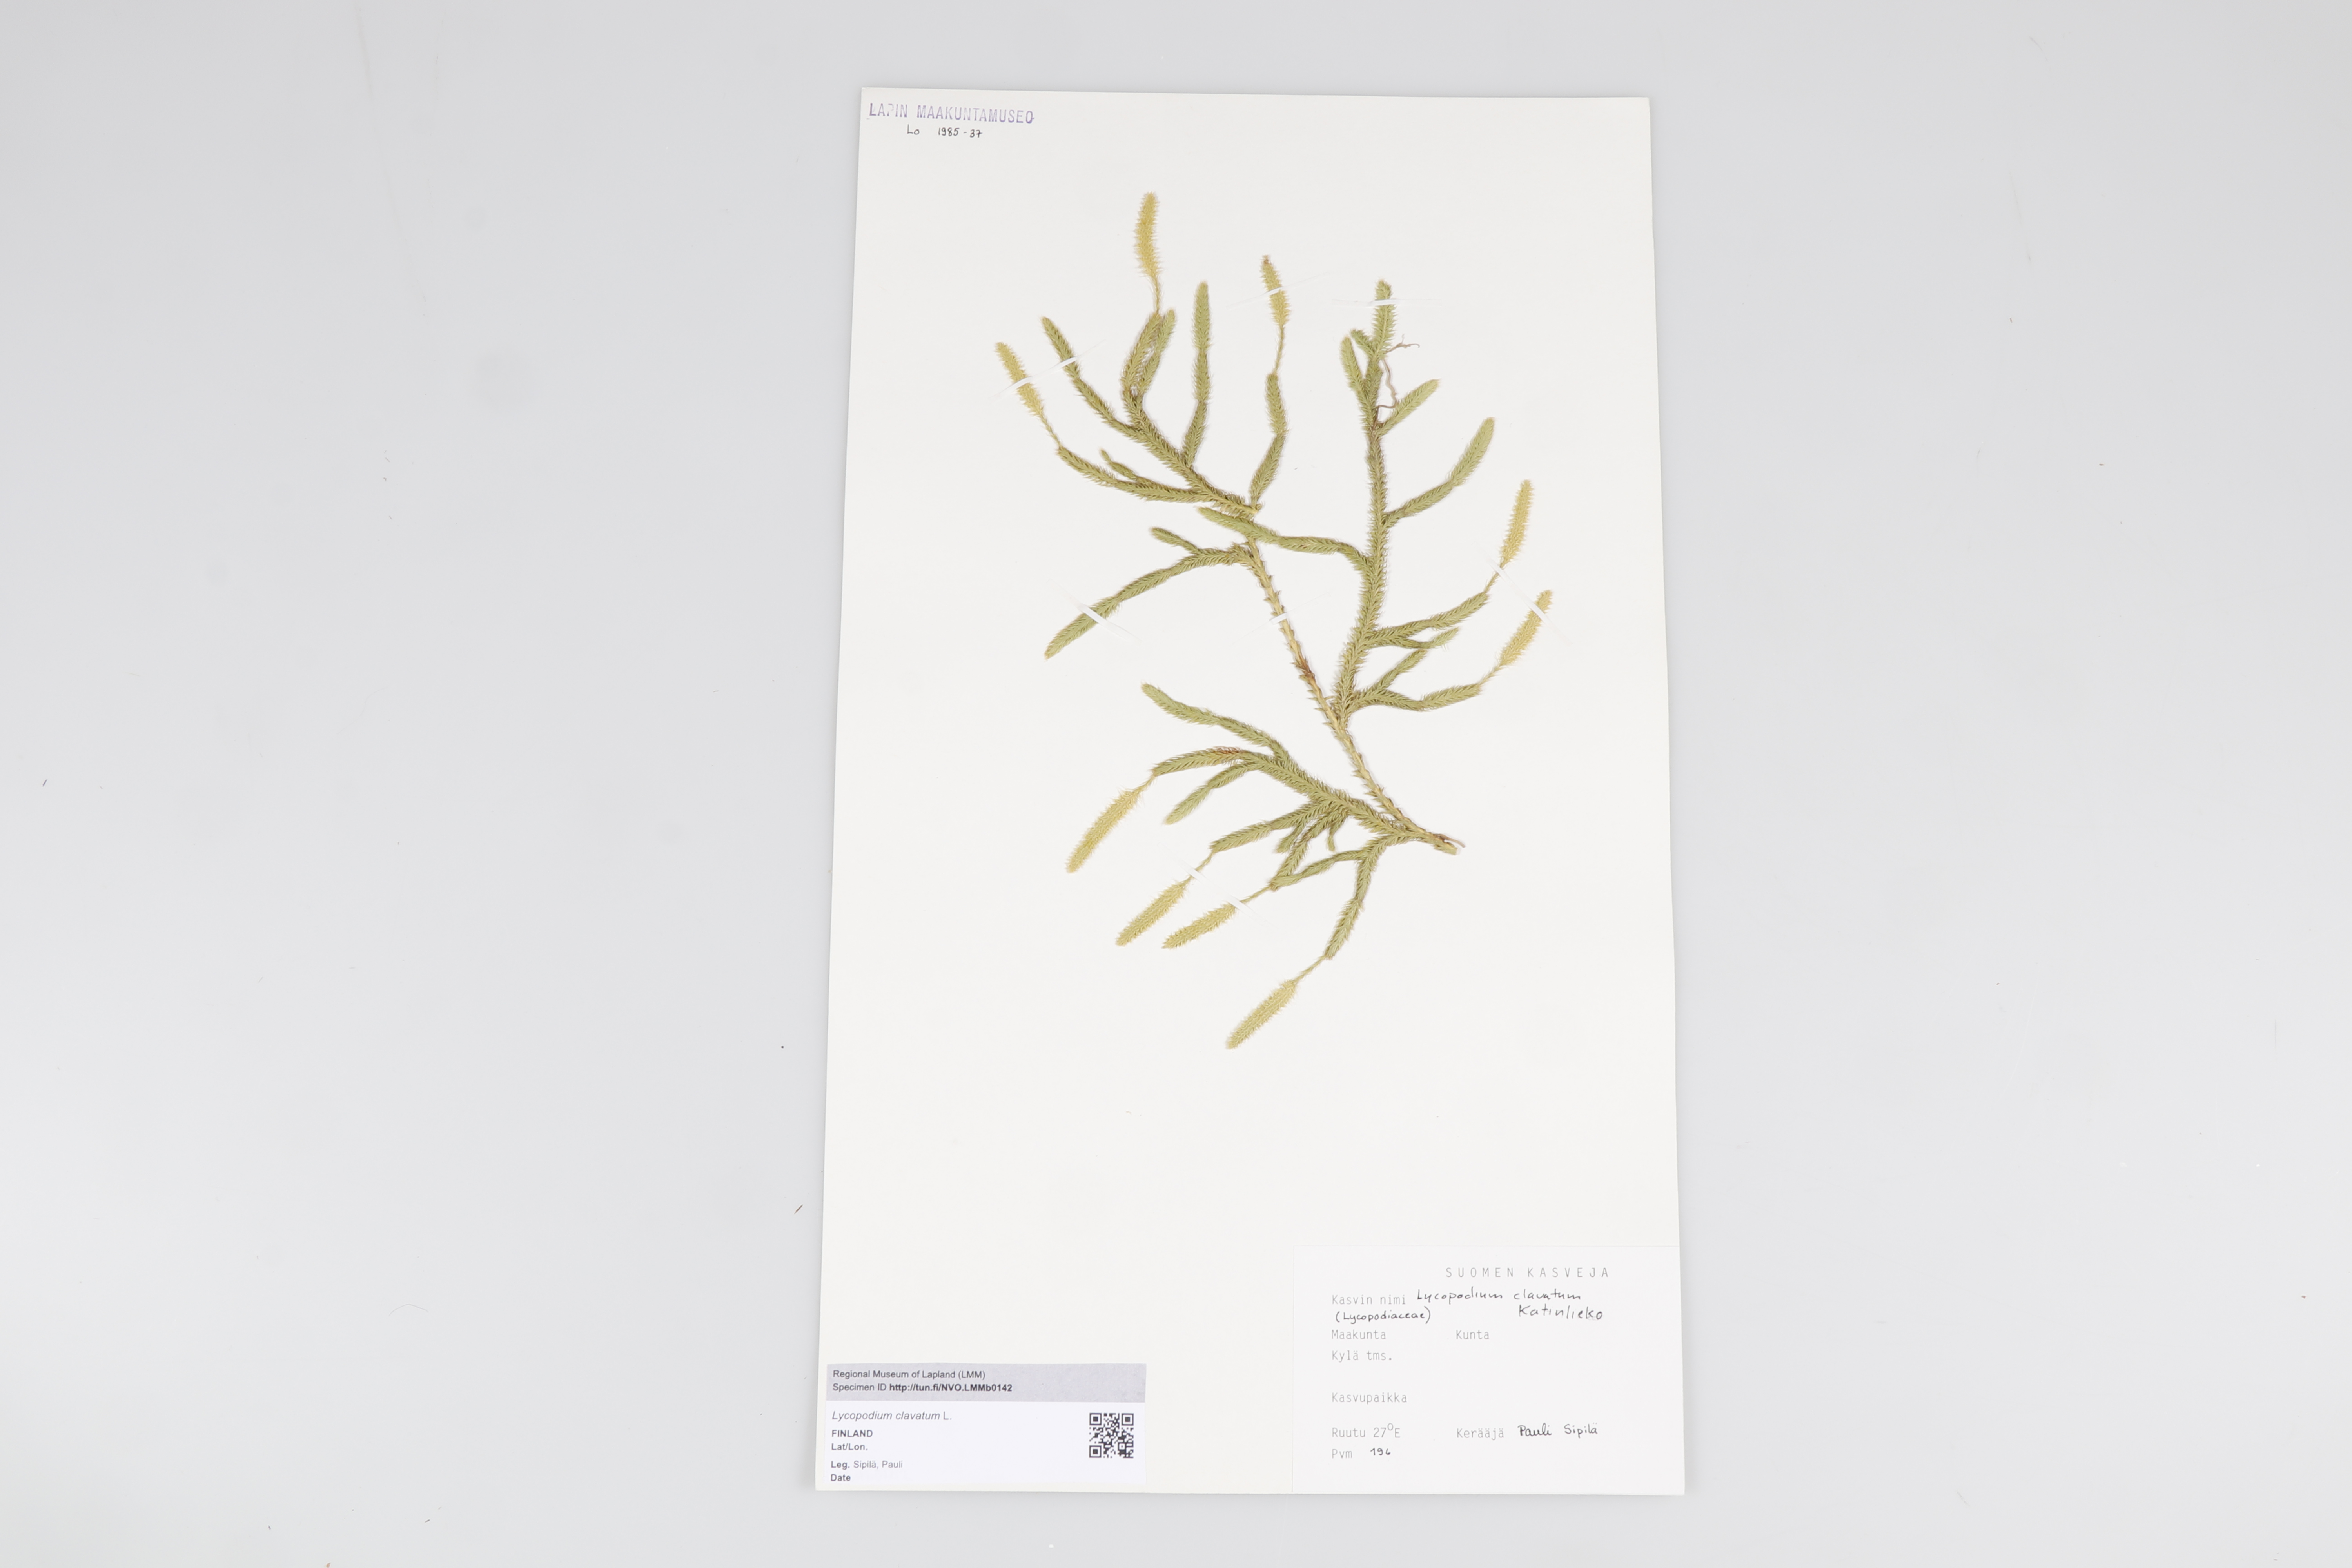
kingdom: Plantae
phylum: Tracheophyta
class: Lycopodiopsida
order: Lycopodiales
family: Lycopodiaceae
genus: Lycopodium
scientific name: Lycopodium clavatum
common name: Stag's-horn clubmoss
